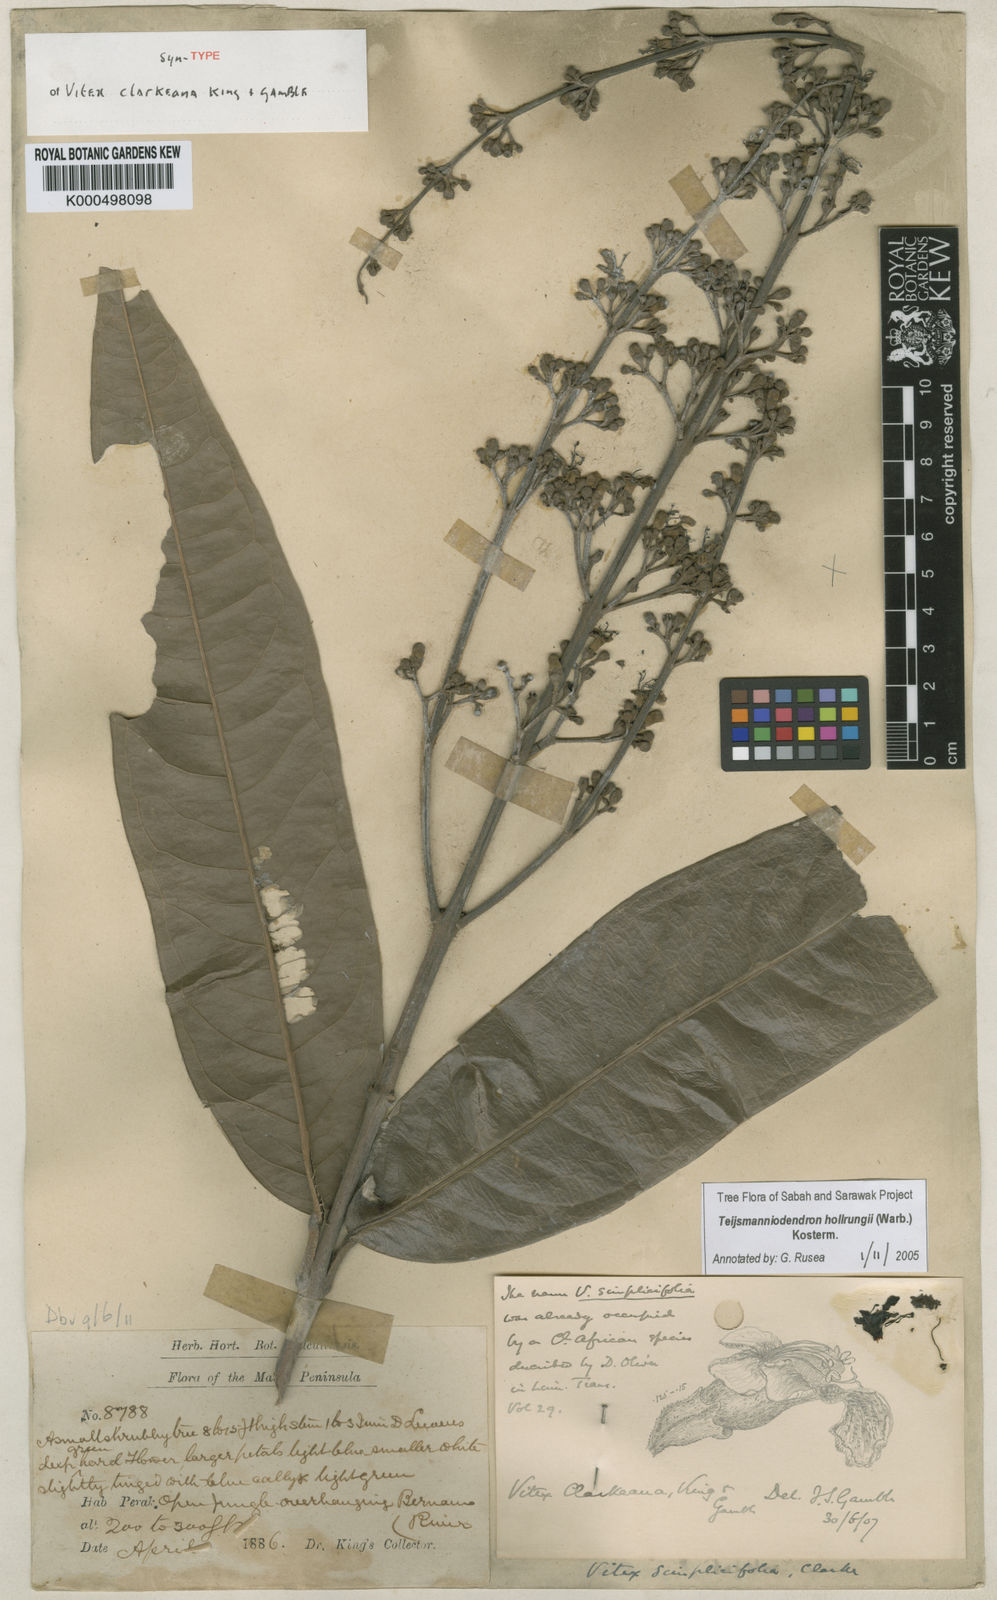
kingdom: Plantae
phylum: Tracheophyta
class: Magnoliopsida
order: Lamiales
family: Lamiaceae
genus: Teijsmanniodendron
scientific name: Teijsmanniodendron hollrungii
